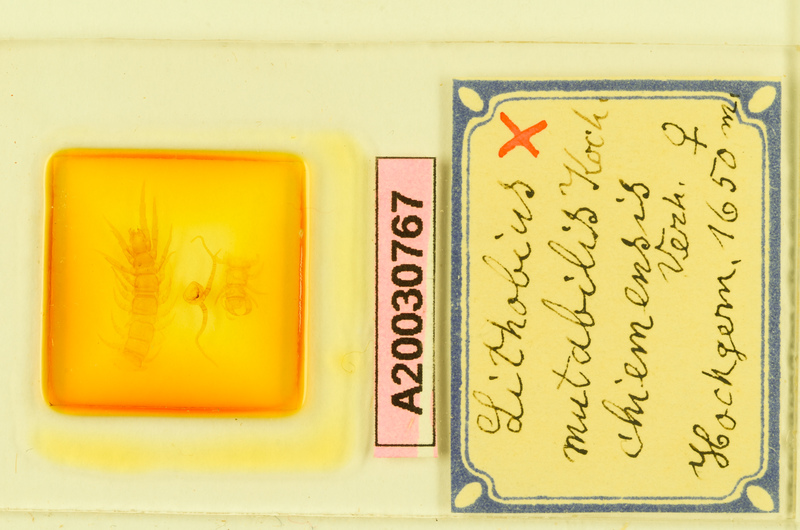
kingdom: Animalia
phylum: Arthropoda
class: Chilopoda
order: Lithobiomorpha
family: Lithobiidae
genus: Lithobius
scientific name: Lithobius mutabilis
